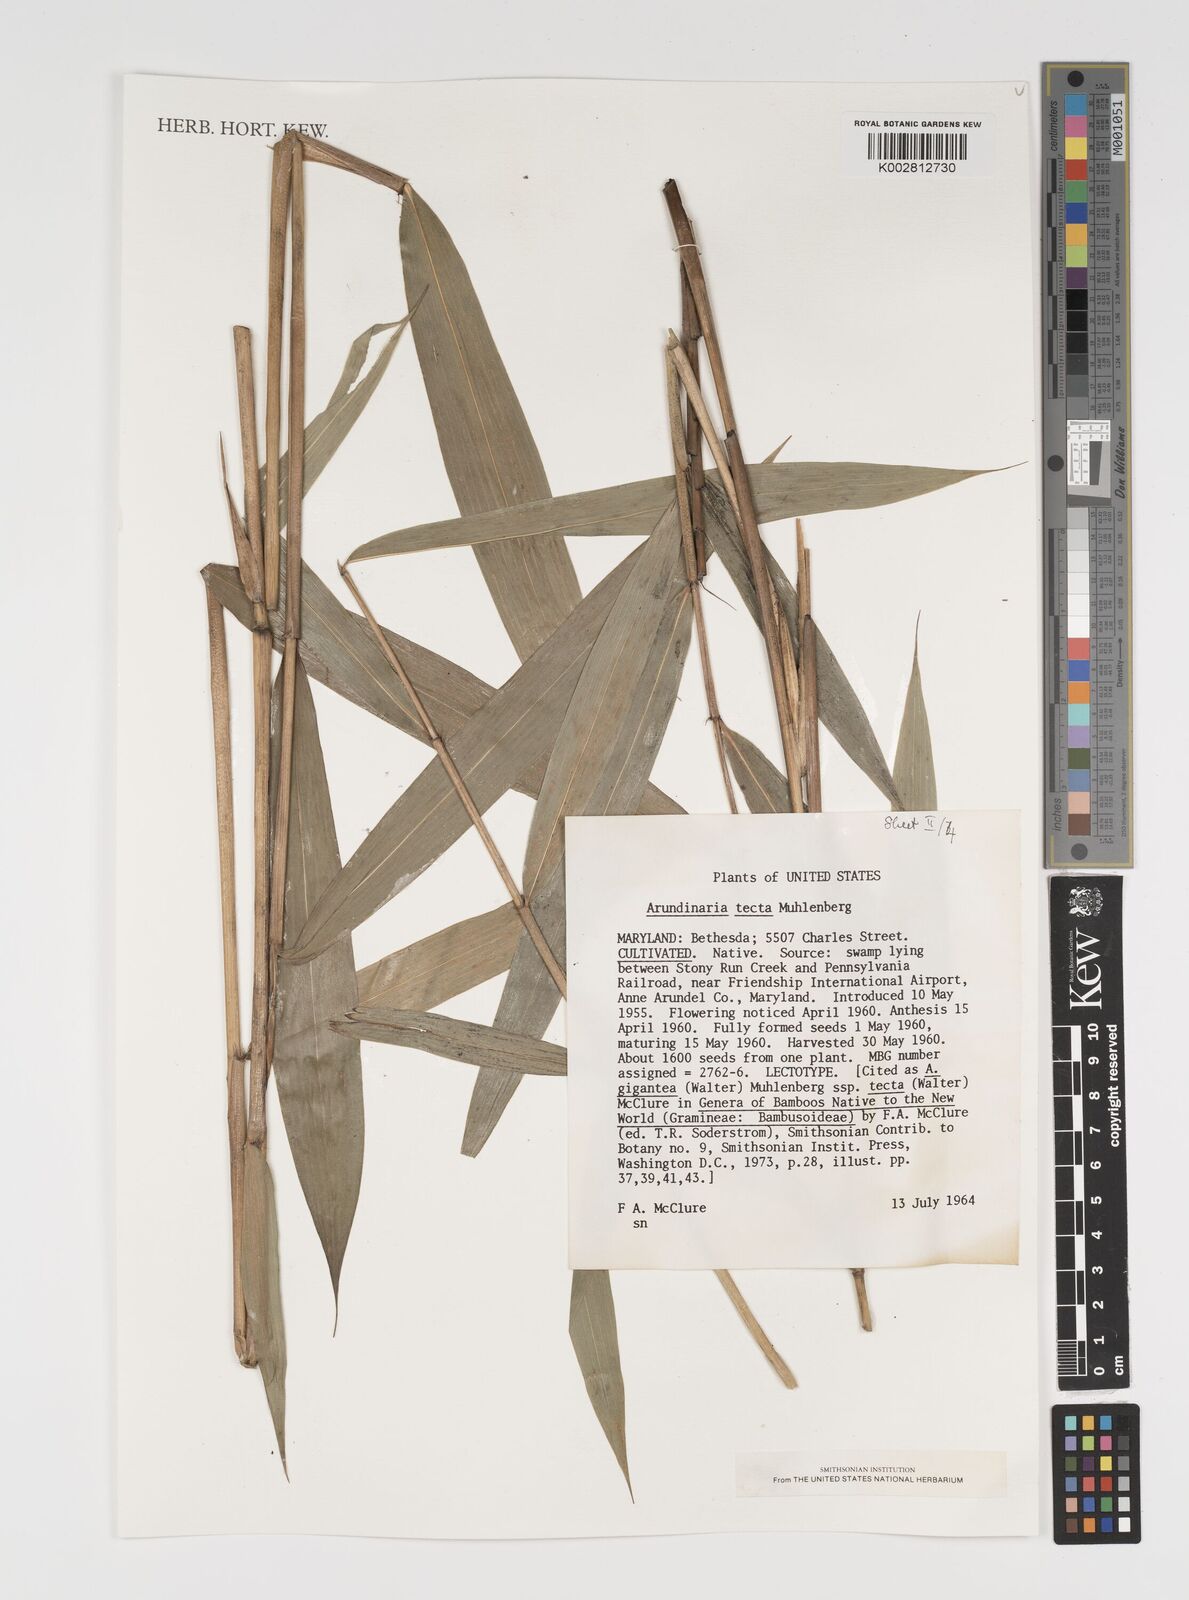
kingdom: Plantae
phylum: Tracheophyta
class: Liliopsida
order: Poales
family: Poaceae
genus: Arundinaria
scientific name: Arundinaria tecta
